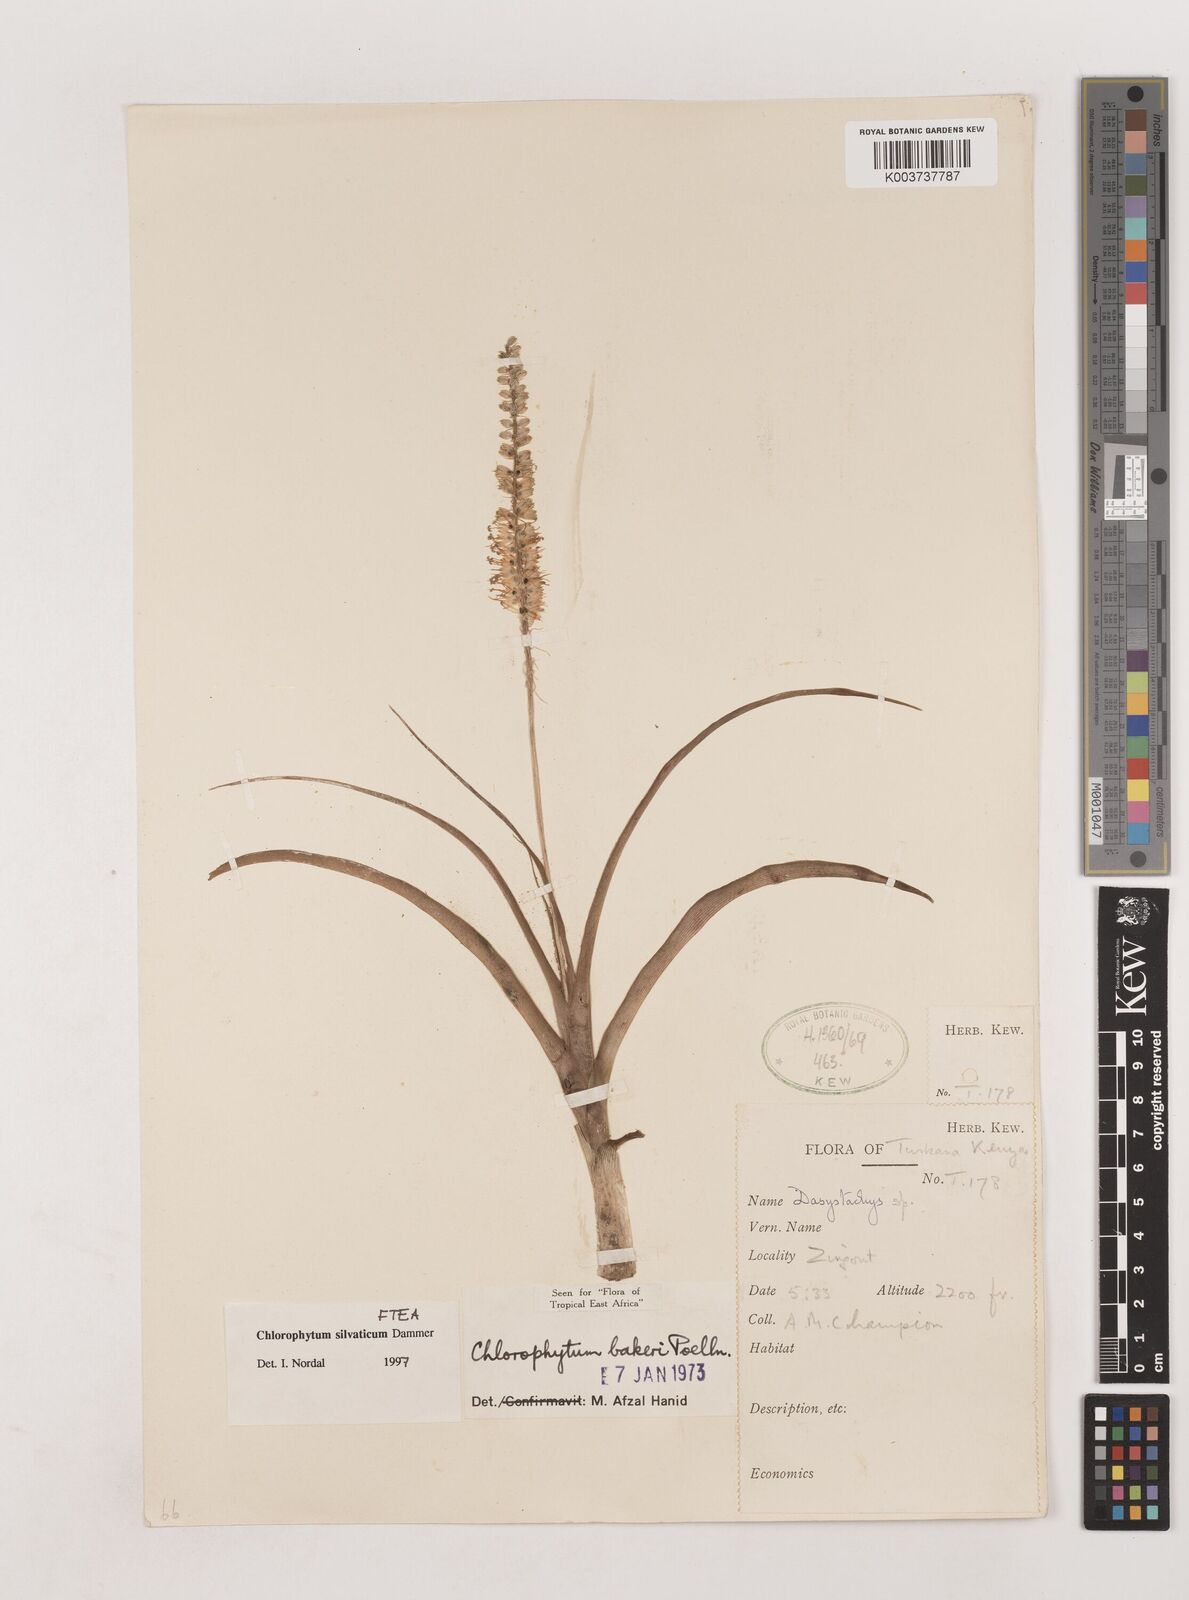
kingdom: Plantae
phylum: Tracheophyta
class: Liliopsida
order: Asparagales
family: Asparagaceae
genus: Chlorophytum
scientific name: Chlorophytum africanum
